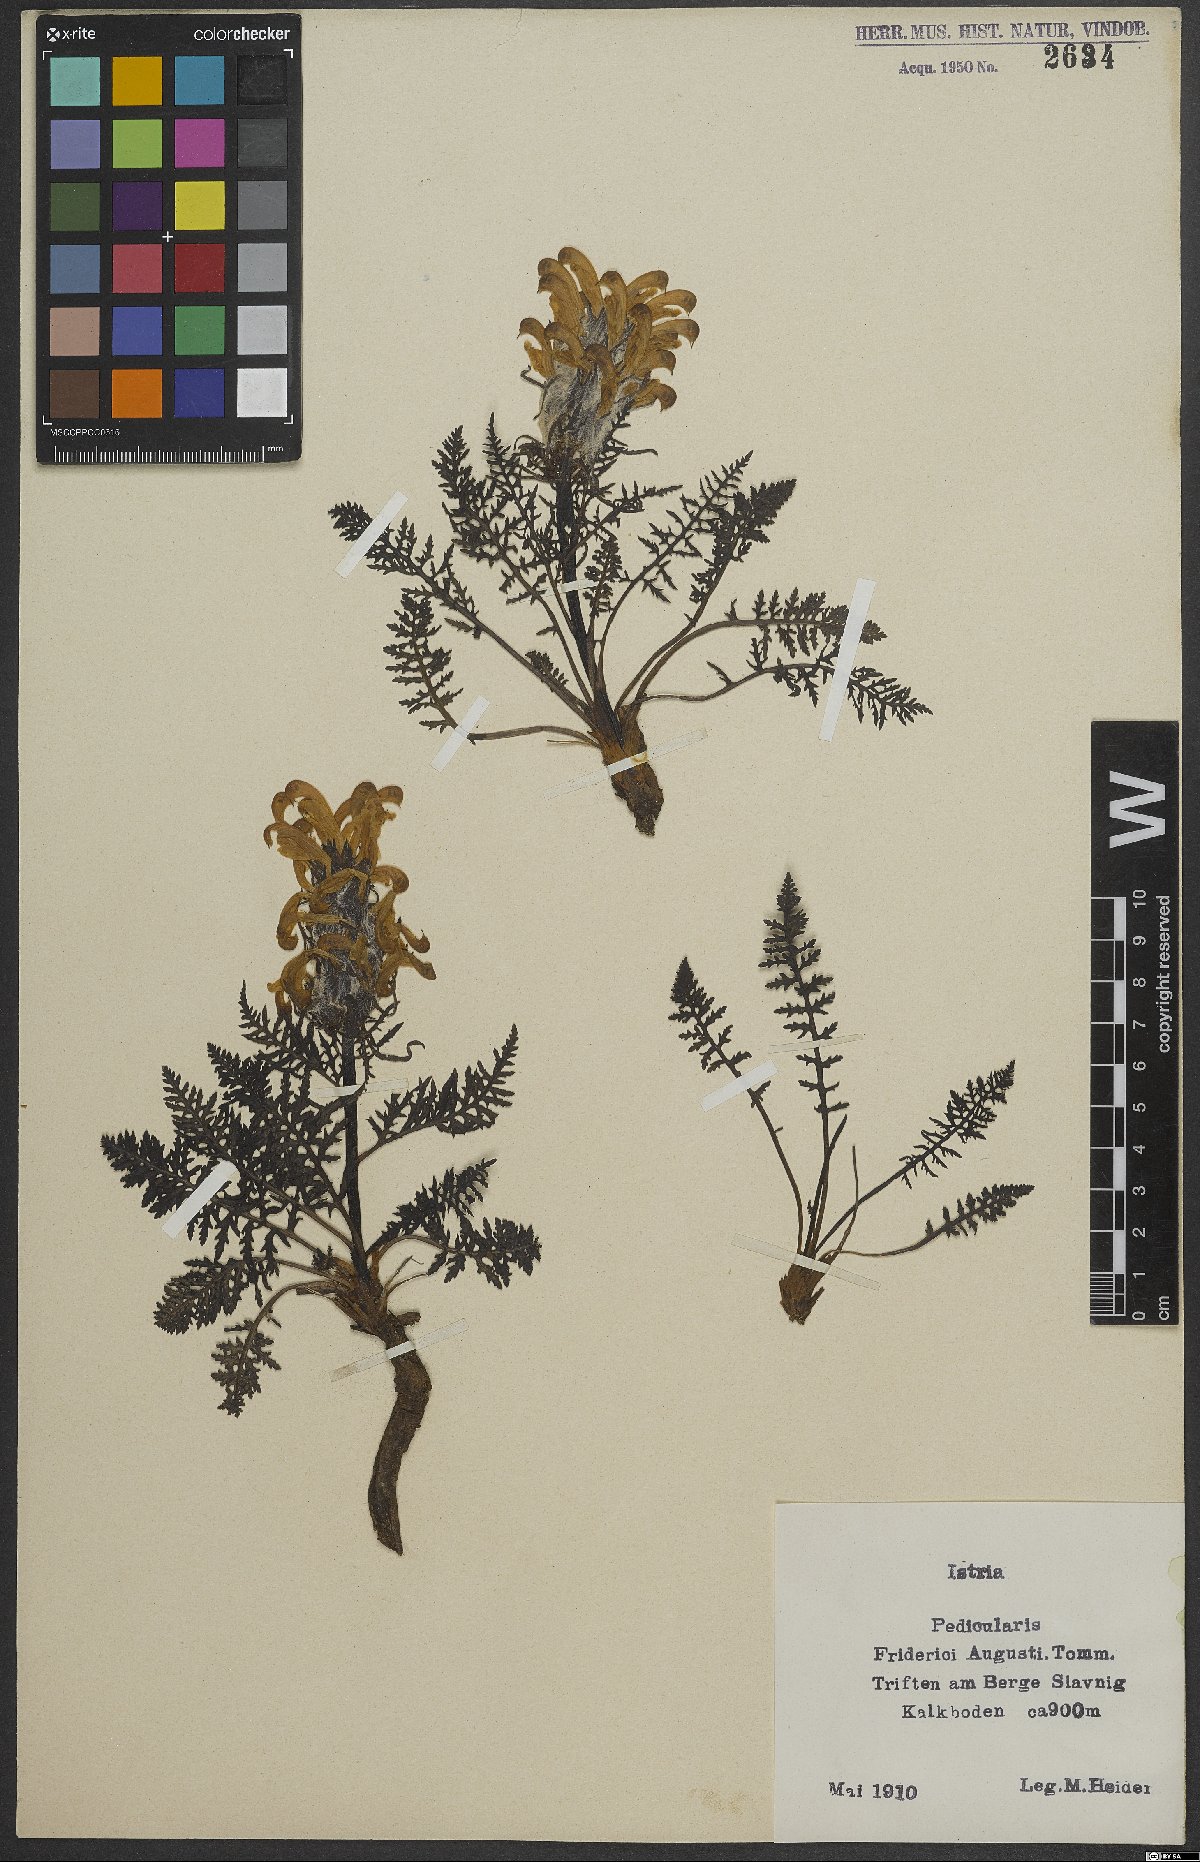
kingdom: Plantae
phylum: Tracheophyta
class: Magnoliopsida
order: Lamiales
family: Orobanchaceae
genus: Pedicularis
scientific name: Pedicularis friderici-augusti
